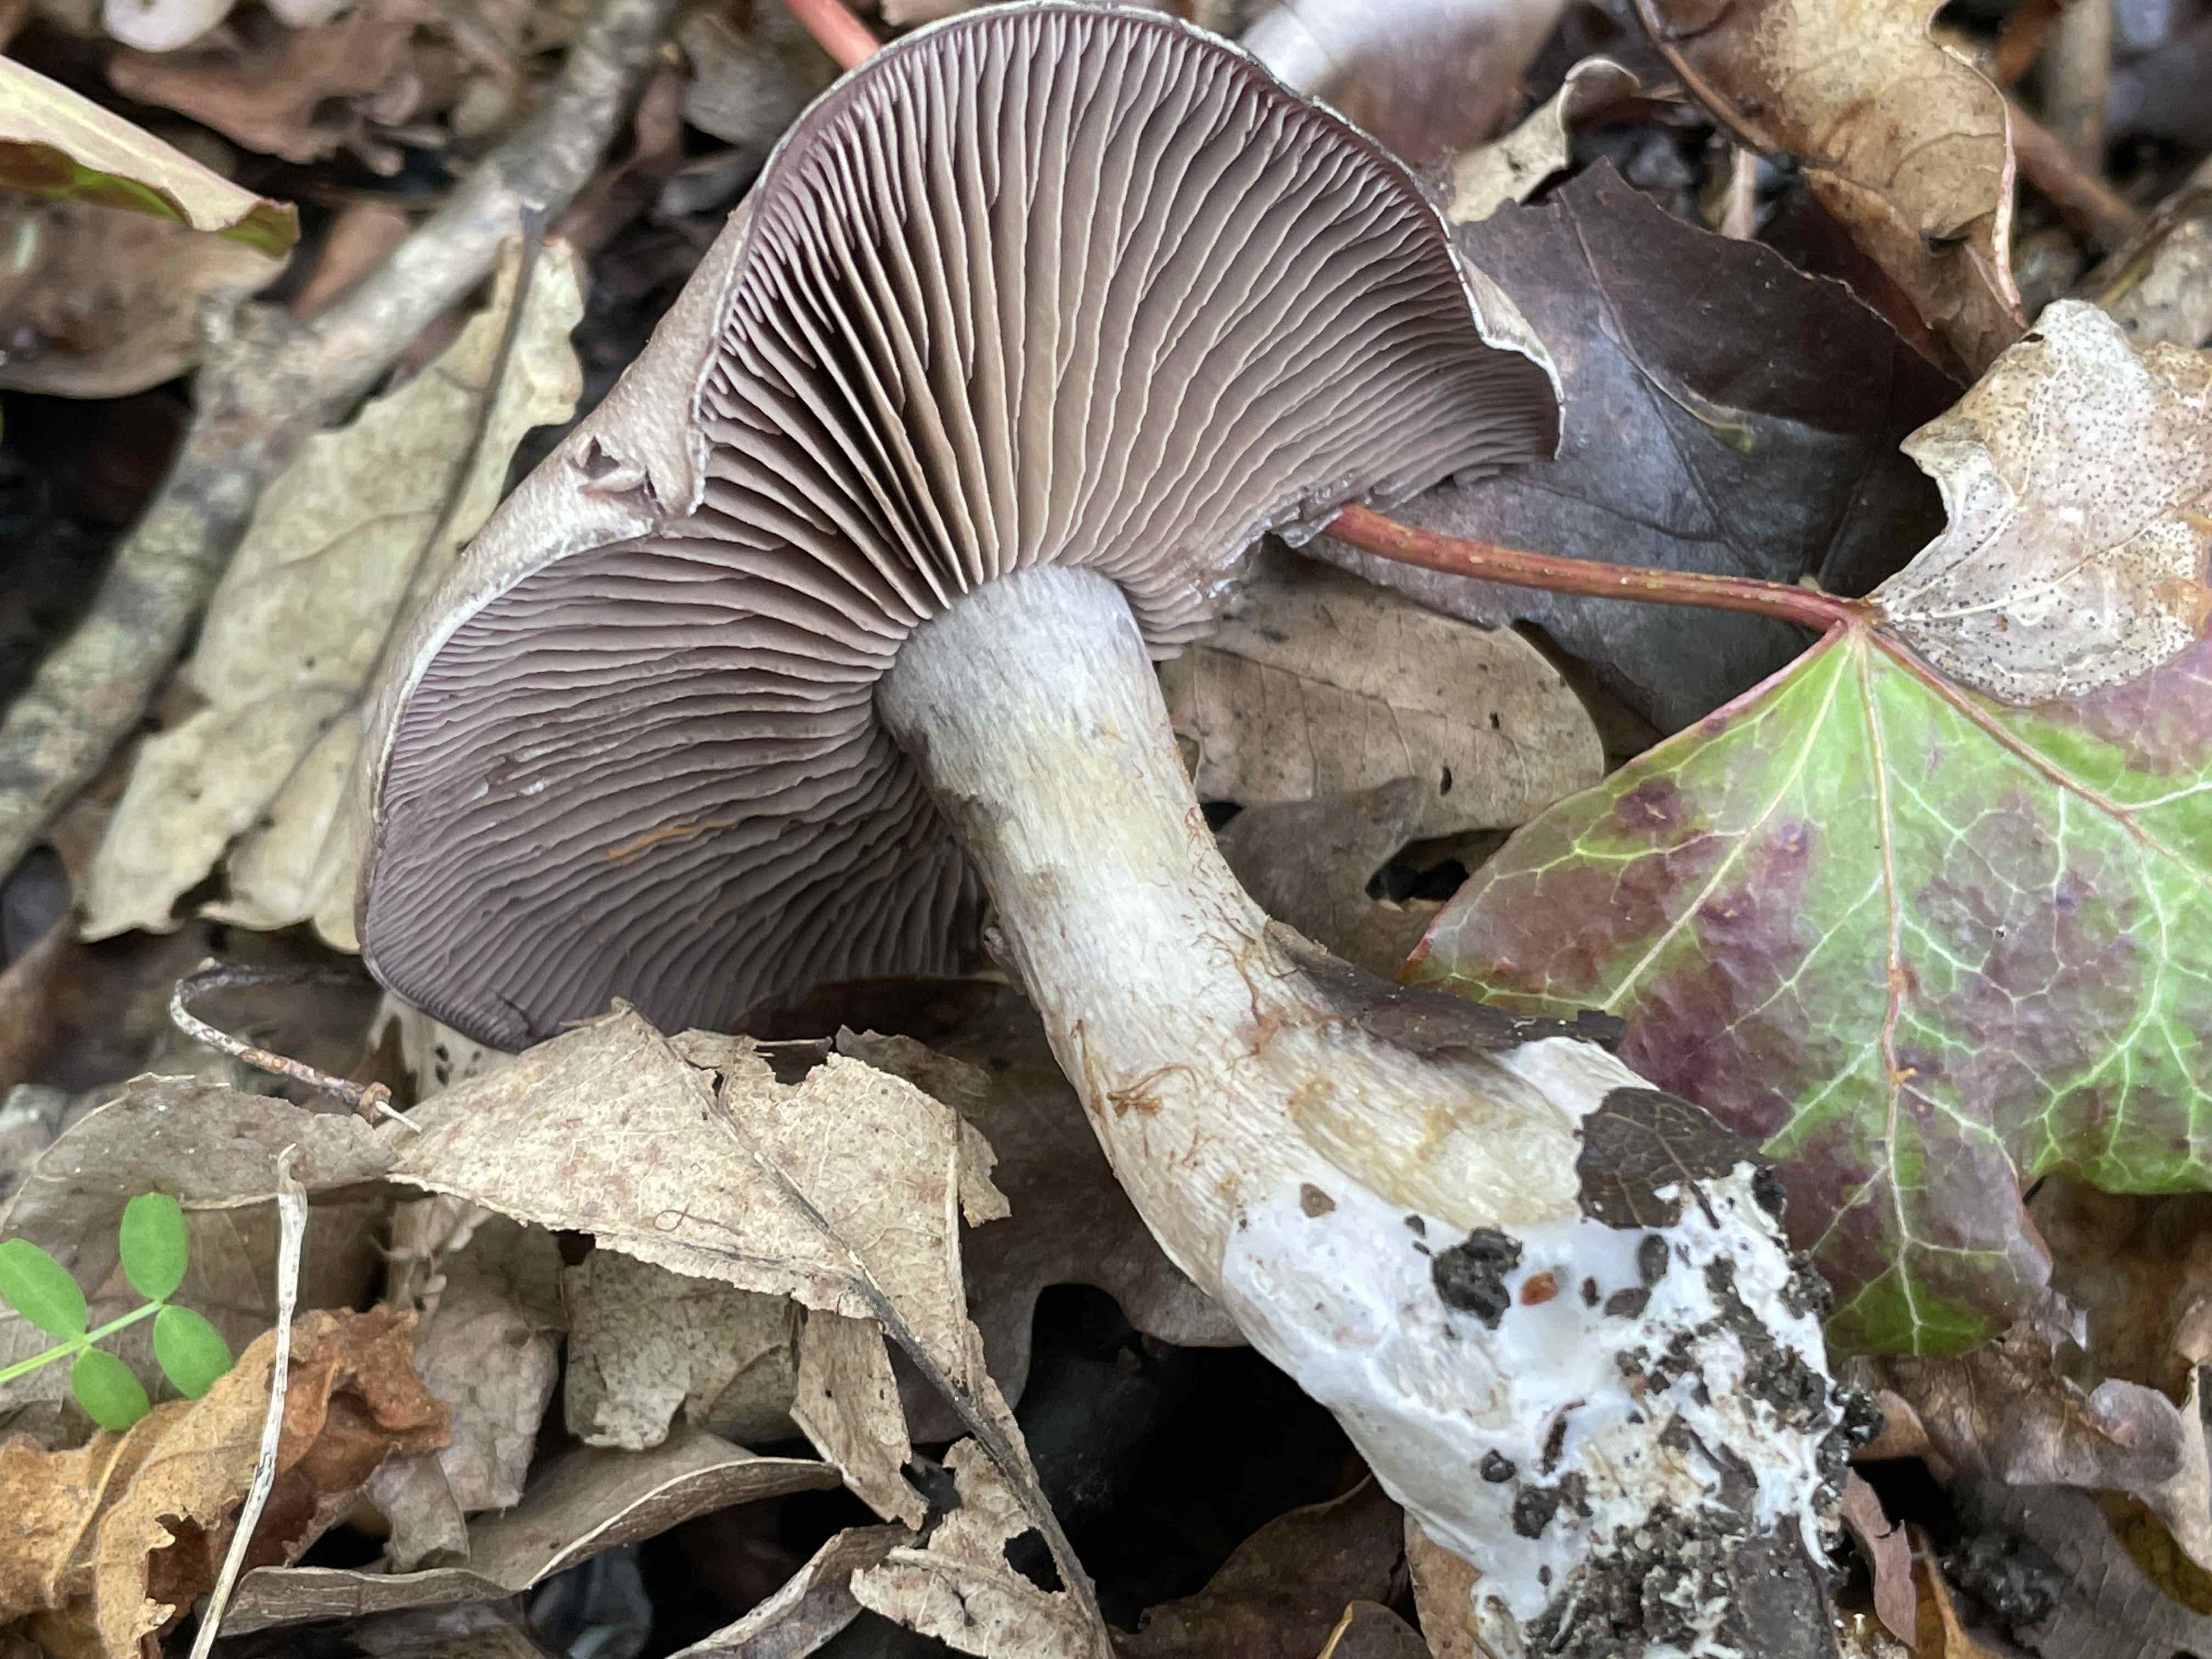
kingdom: Fungi
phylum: Basidiomycota
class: Agaricomycetes
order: Agaricales
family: Cortinariaceae
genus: Cortinarius
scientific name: Cortinarius
